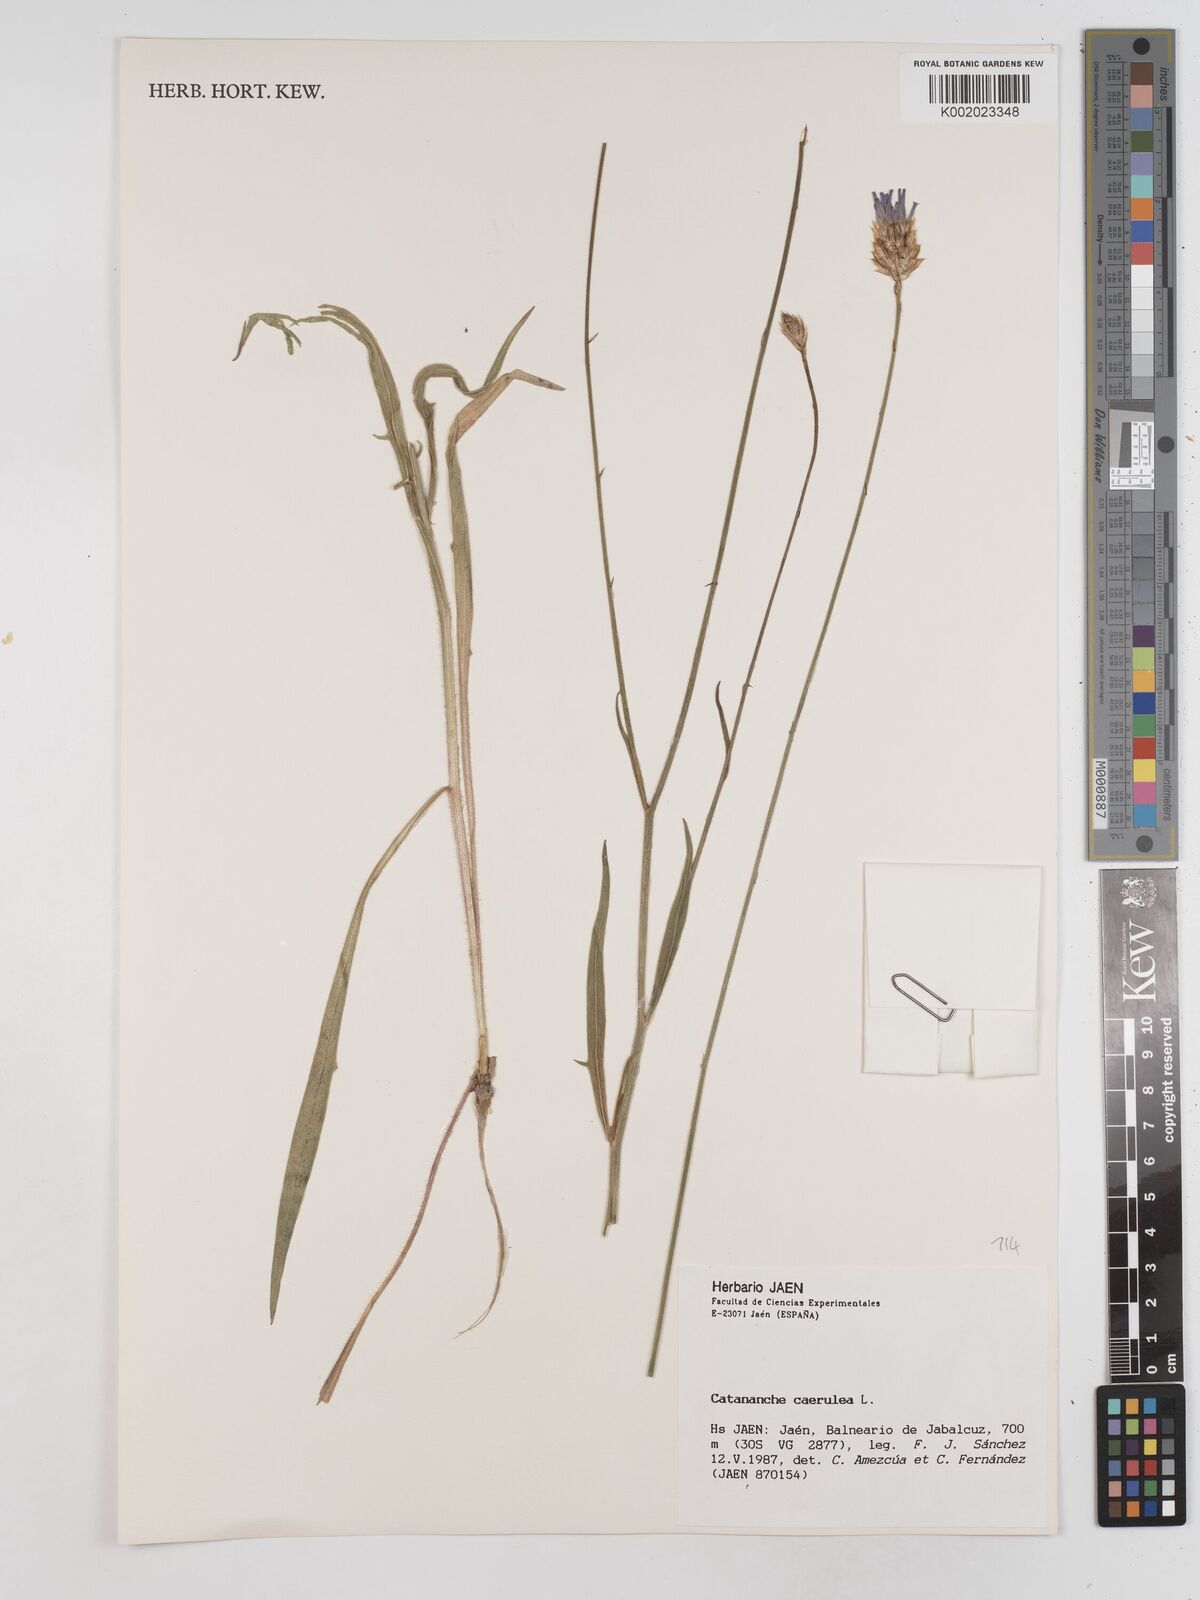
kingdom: Plantae
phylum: Tracheophyta
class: Magnoliopsida
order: Asterales
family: Asteraceae
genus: Catananche
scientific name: Catananche caerulea
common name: Blue cupidone
